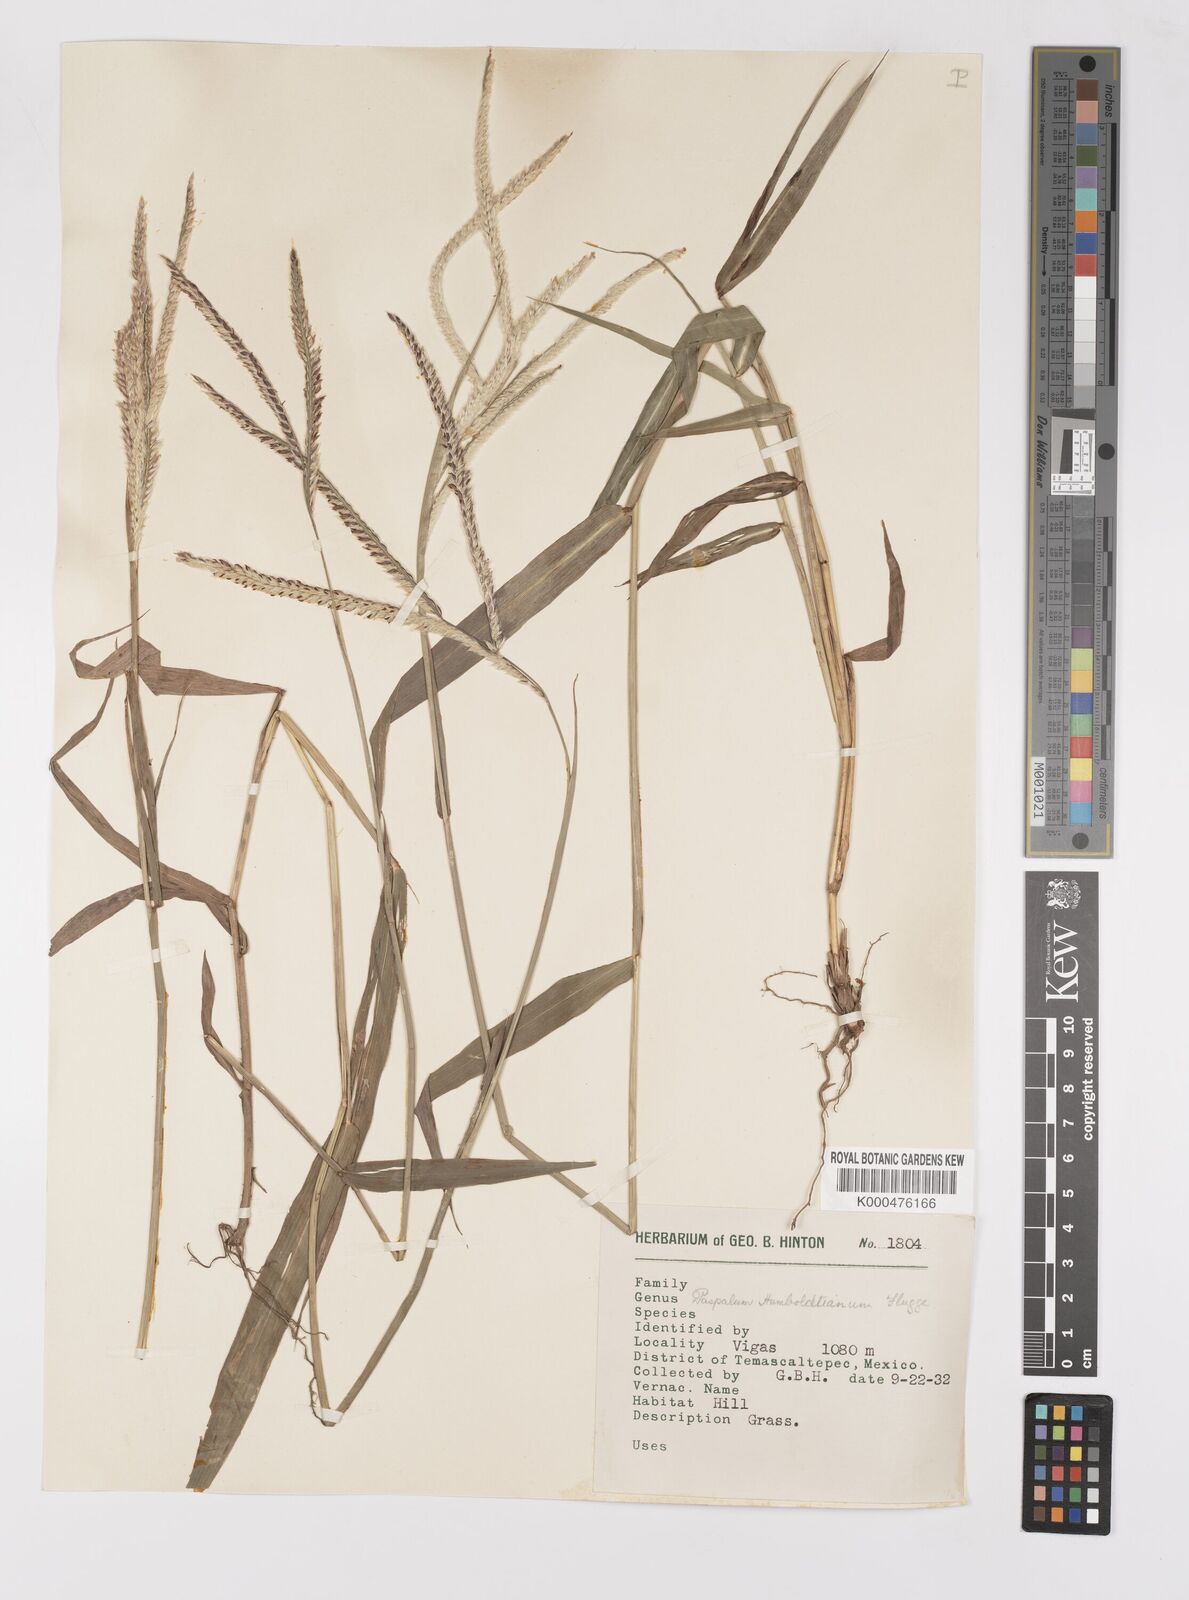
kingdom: Plantae
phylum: Tracheophyta
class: Liliopsida
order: Poales
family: Poaceae
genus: Paspalum
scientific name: Paspalum
